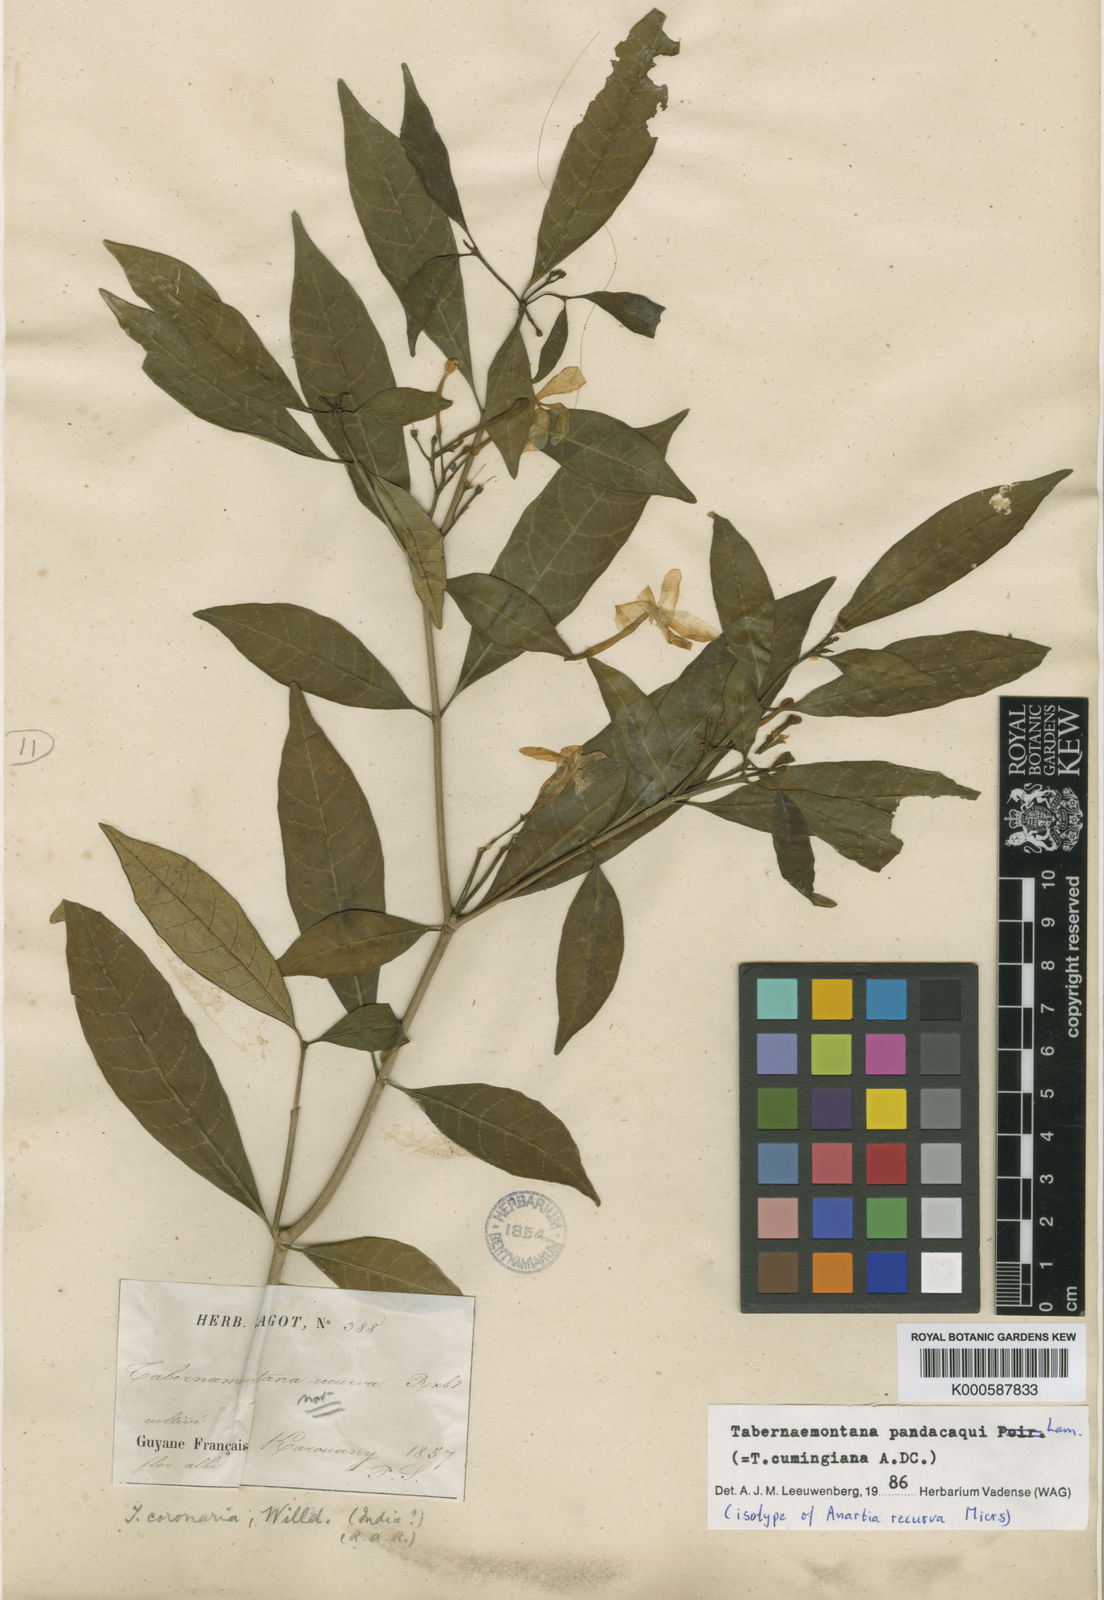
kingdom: Plantae
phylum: Tracheophyta
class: Magnoliopsida
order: Gentianales
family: Apocynaceae
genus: Tabernaemontana
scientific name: Tabernaemontana
